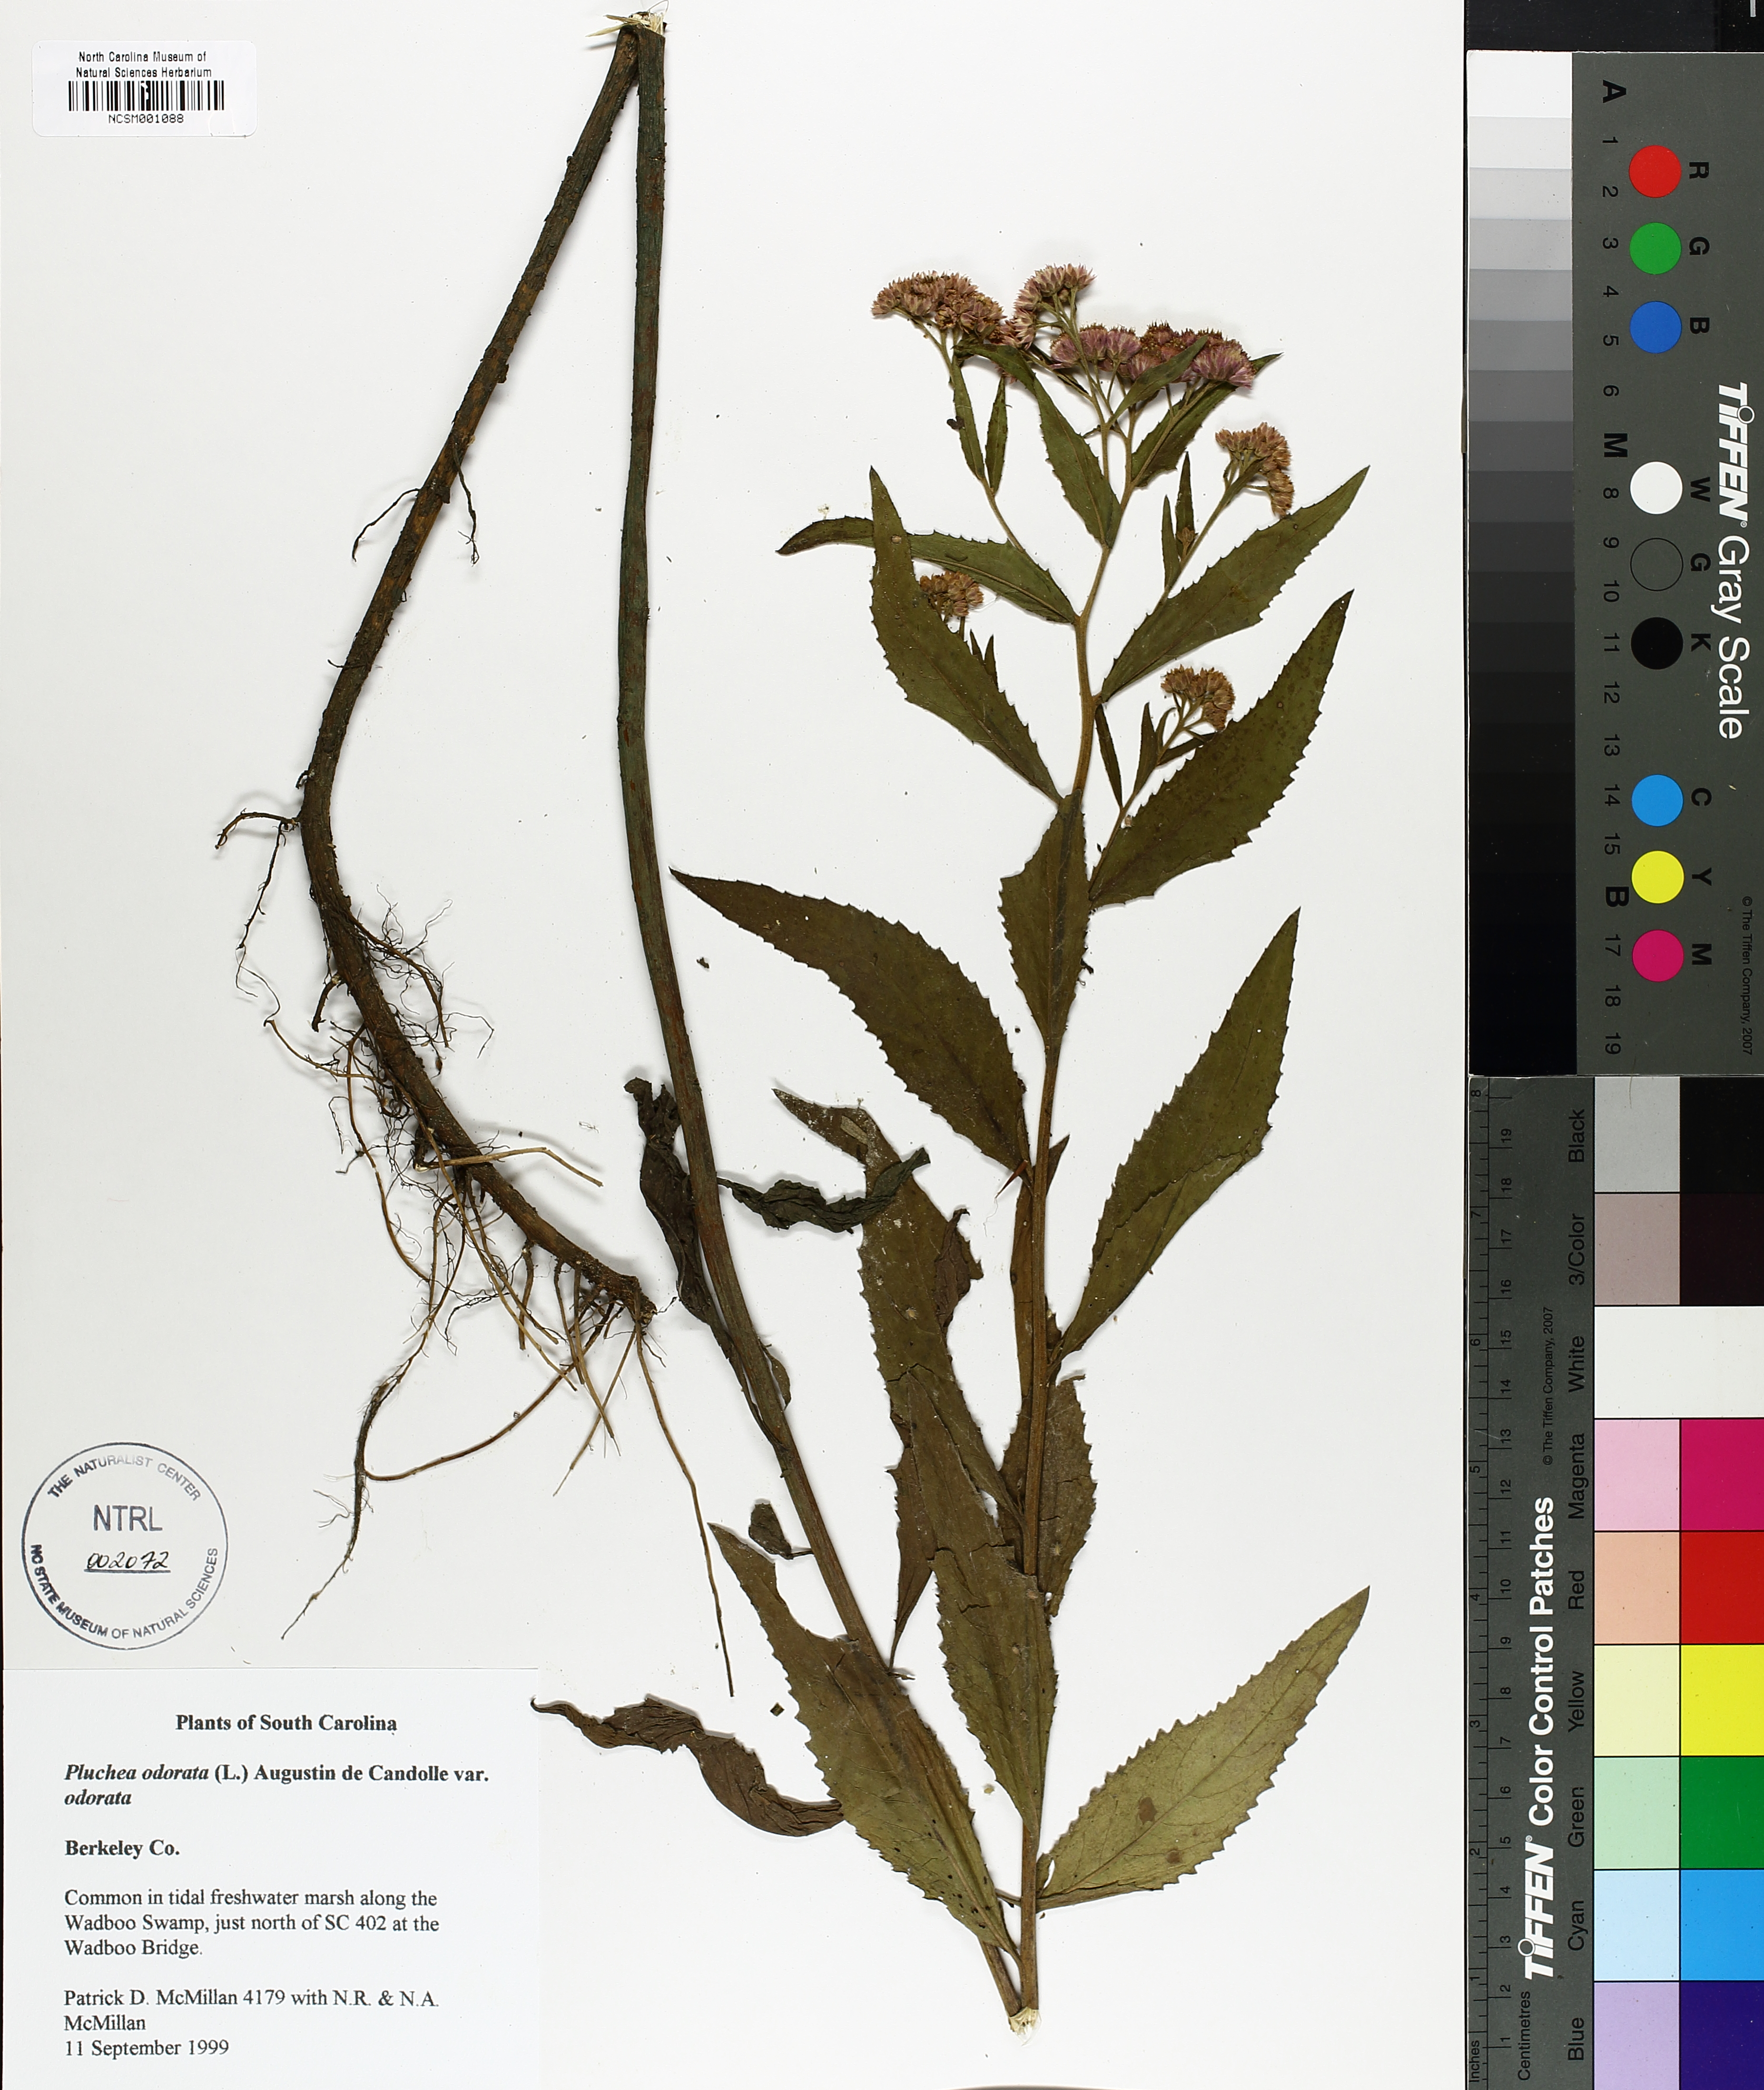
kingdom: Plantae
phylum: Tracheophyta
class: Magnoliopsida
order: Asterales
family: Asteraceae
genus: Pluchea
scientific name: Pluchea odorata
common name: Saltmarsh fleabane
